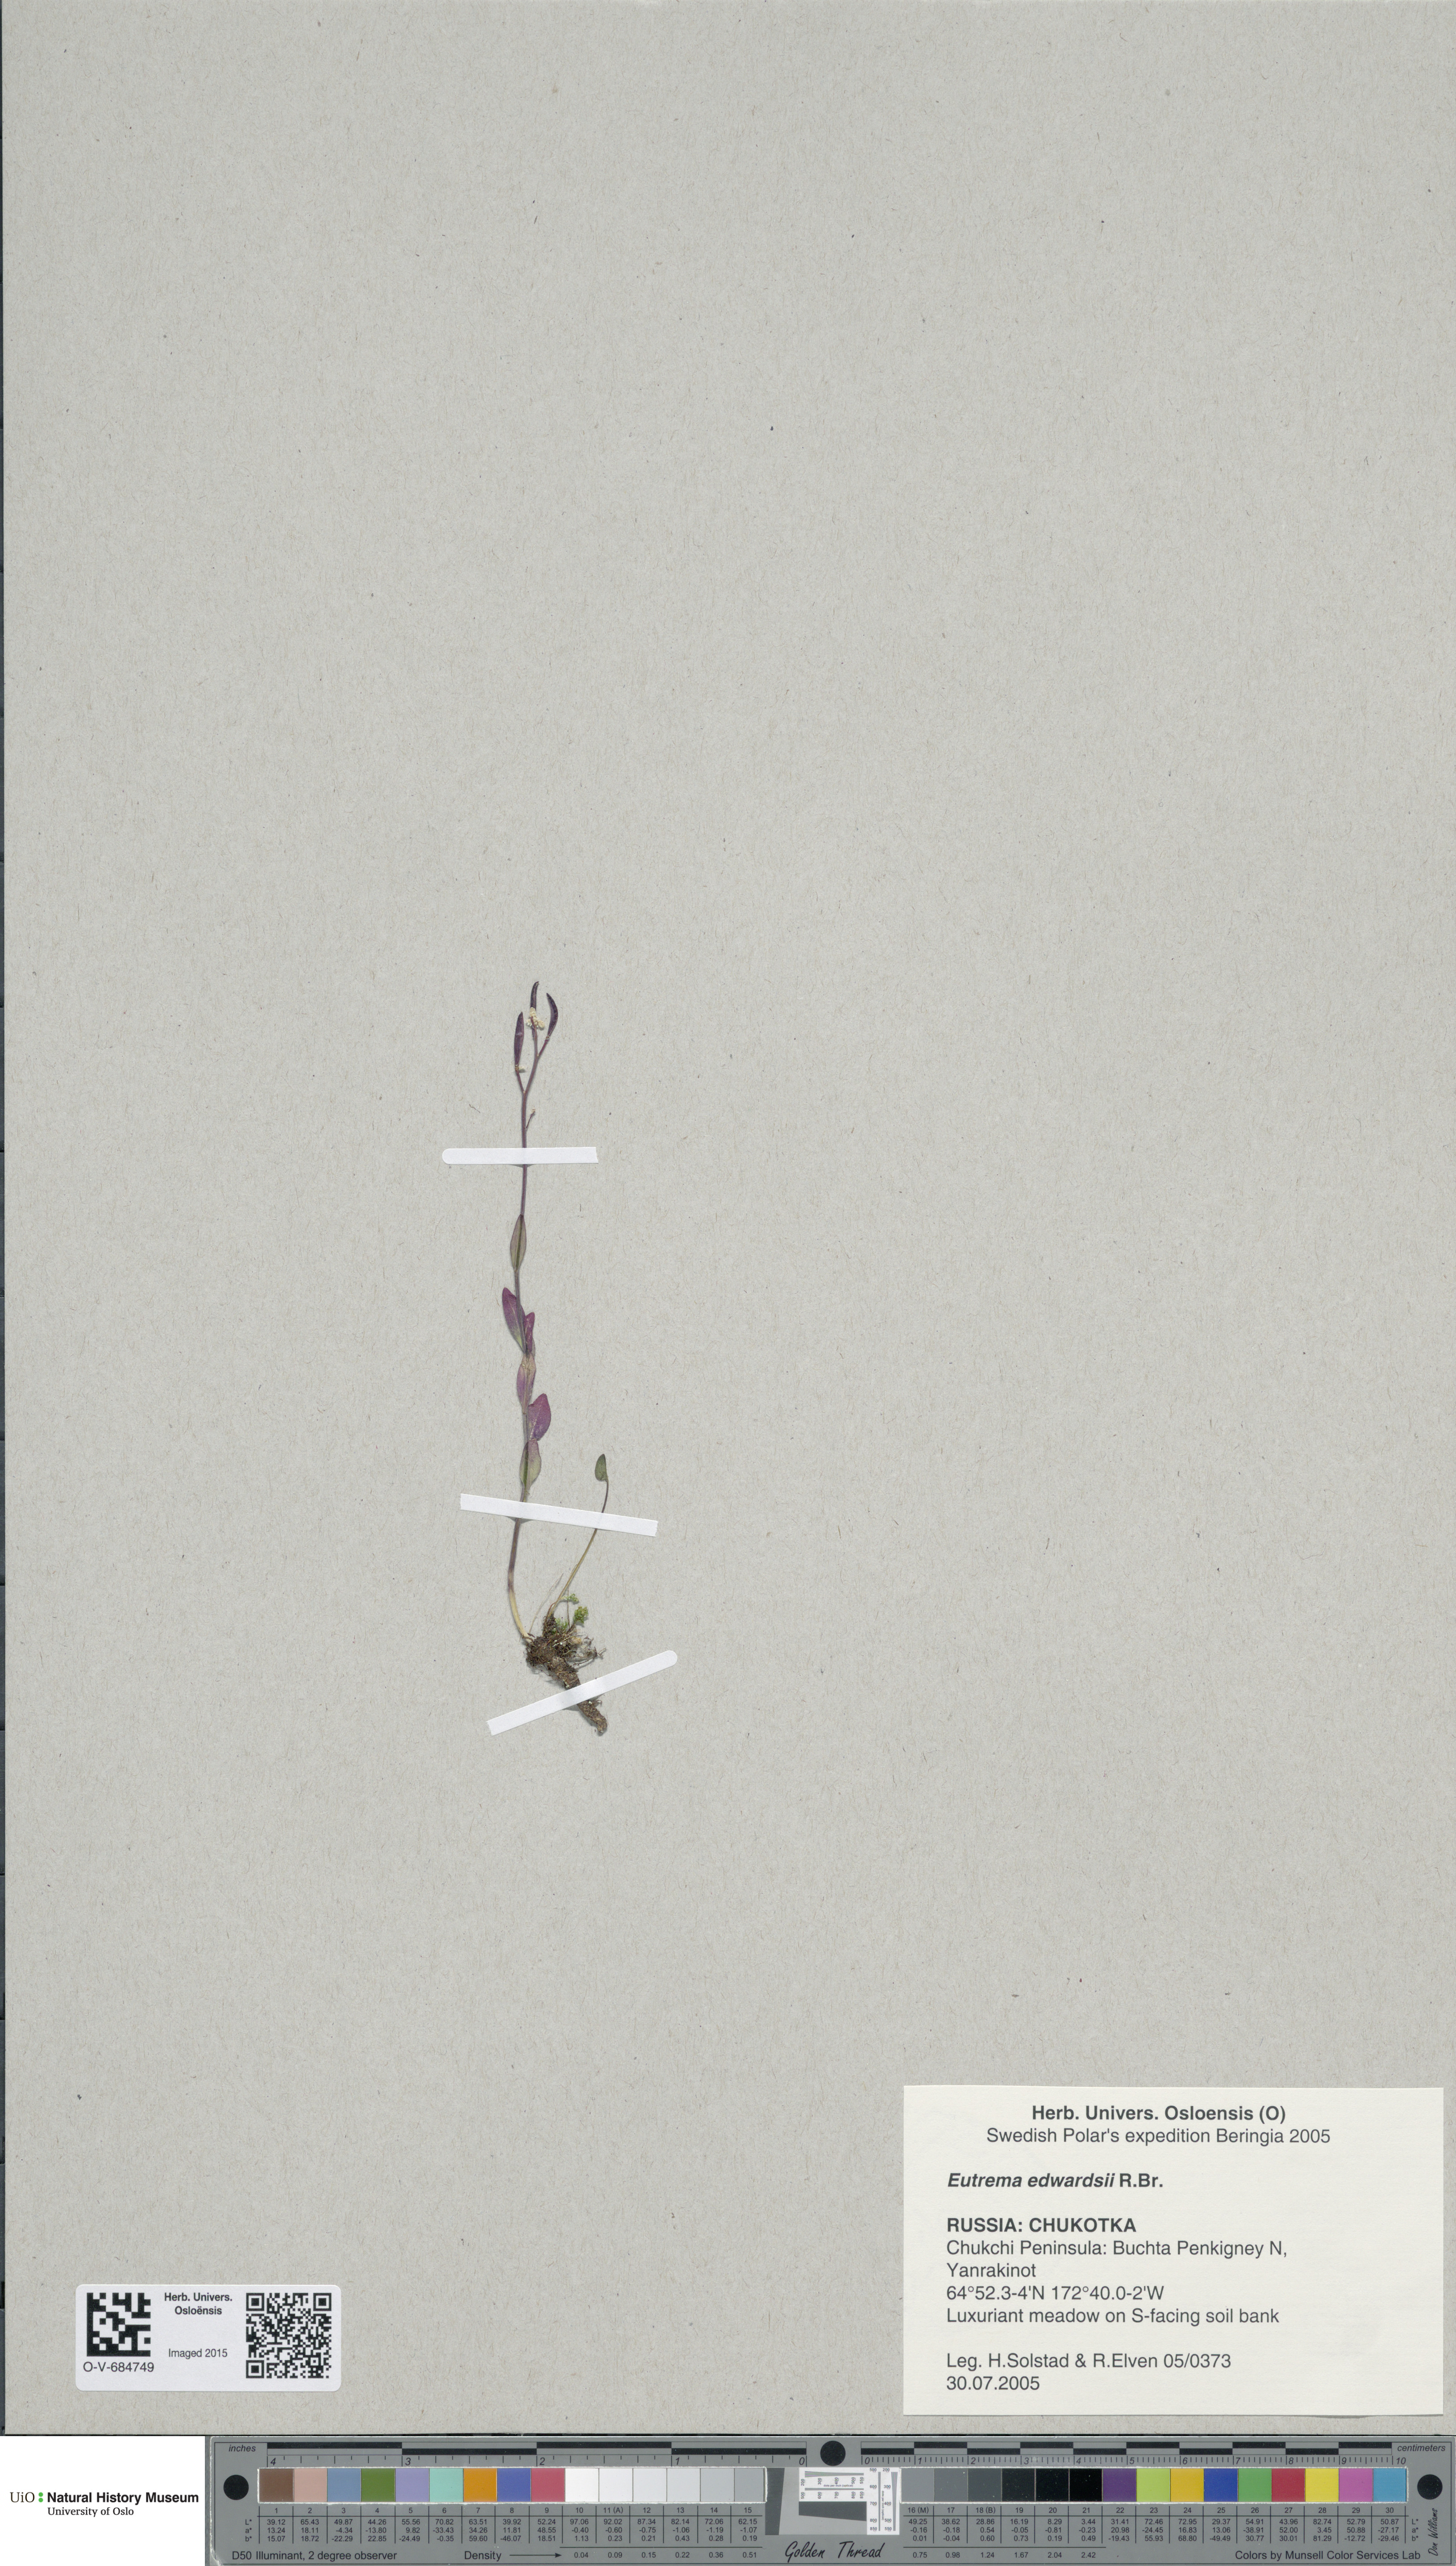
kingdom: Plantae
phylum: Tracheophyta
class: Magnoliopsida
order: Brassicales
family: Brassicaceae
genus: Eutrema
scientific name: Eutrema edwardsii
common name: Penland alpine fen mustard
